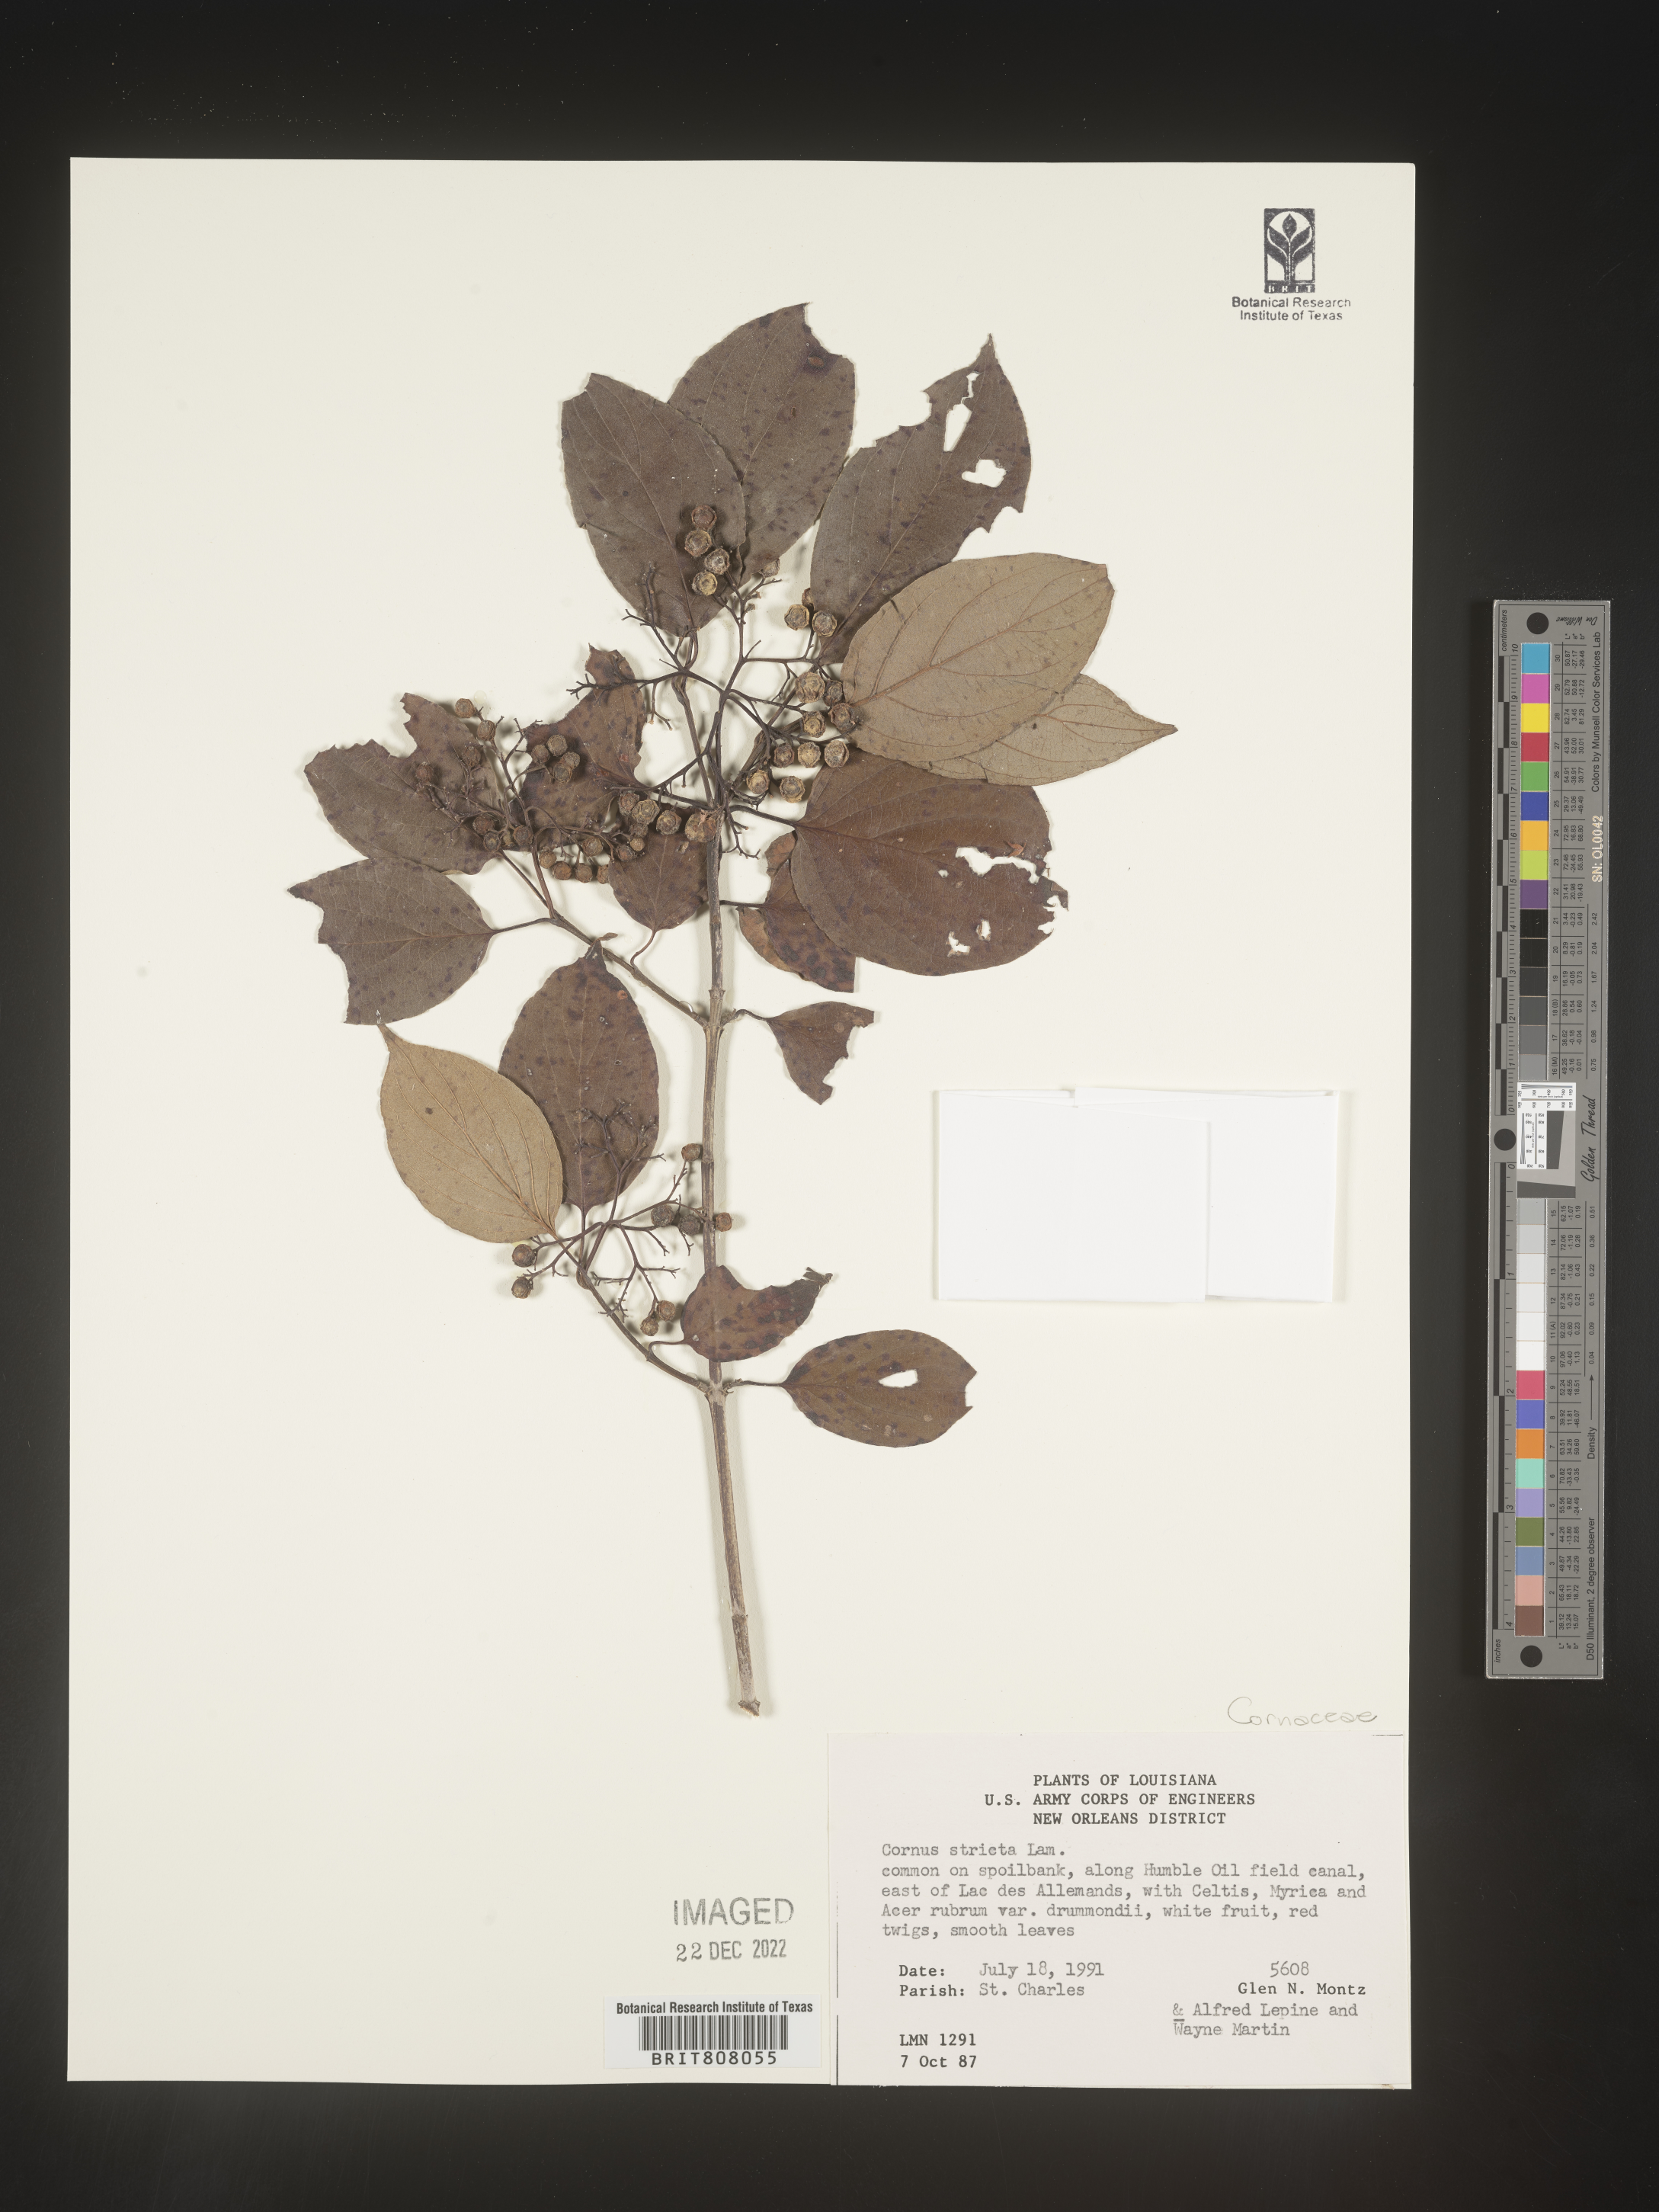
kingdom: Plantae
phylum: Tracheophyta
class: Magnoliopsida
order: Cornales
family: Cornaceae
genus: Cornus
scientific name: Cornus foemina
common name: Swamp dogwood
